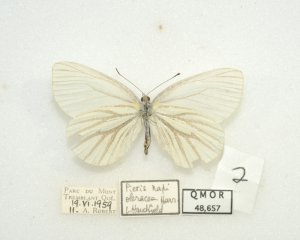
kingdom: Animalia
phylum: Arthropoda
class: Insecta
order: Lepidoptera
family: Pieridae
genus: Pieris
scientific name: Pieris oleracea
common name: Mustard White
